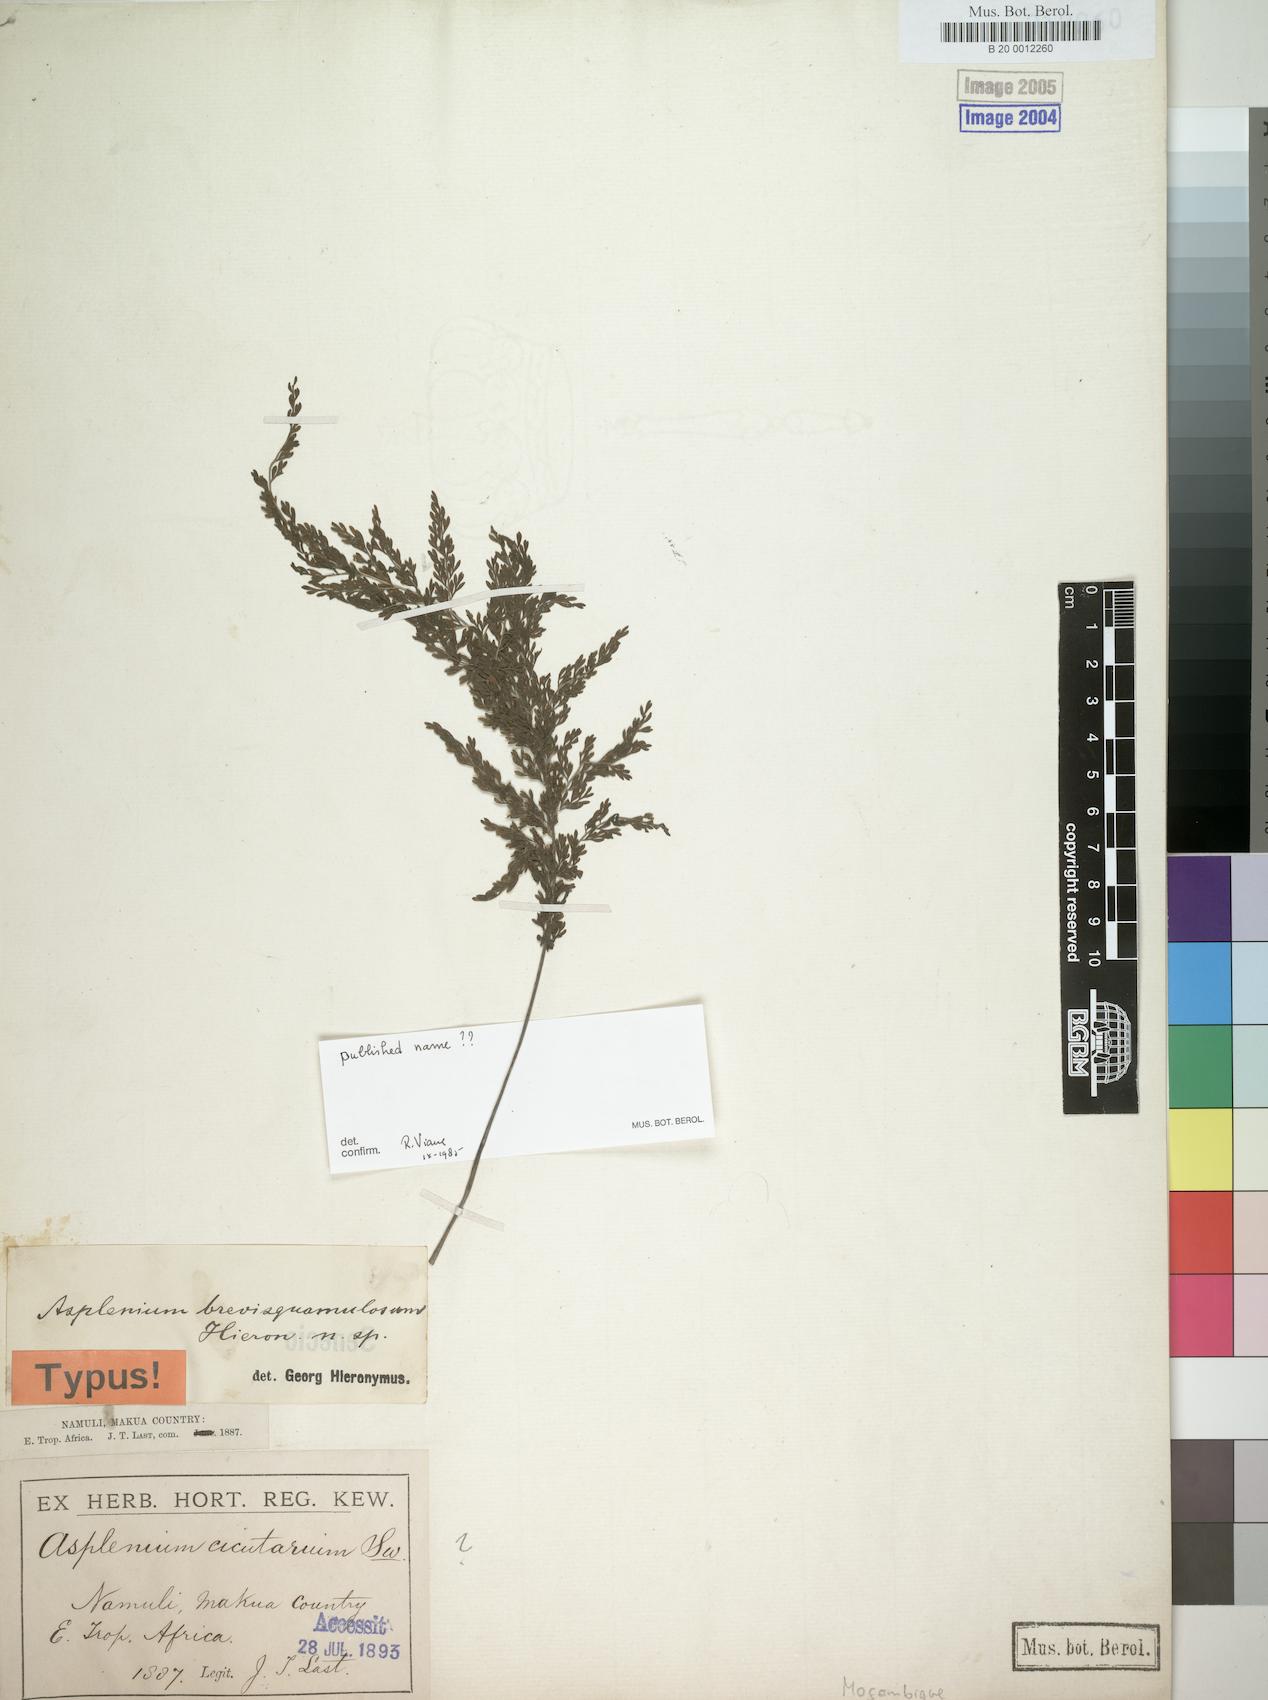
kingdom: Plantae
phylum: Tracheophyta
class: Polypodiopsida
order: Polypodiales
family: Aspleniaceae
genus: Asplenium
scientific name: Asplenium
